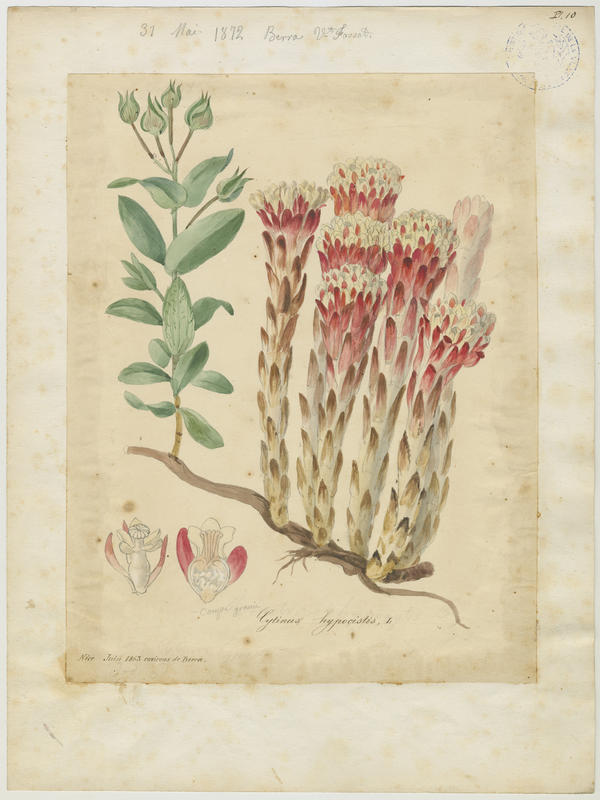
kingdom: Plantae
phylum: Tracheophyta
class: Magnoliopsida
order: Malvales
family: Cytinaceae
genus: Cytinus
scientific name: Cytinus ruber
